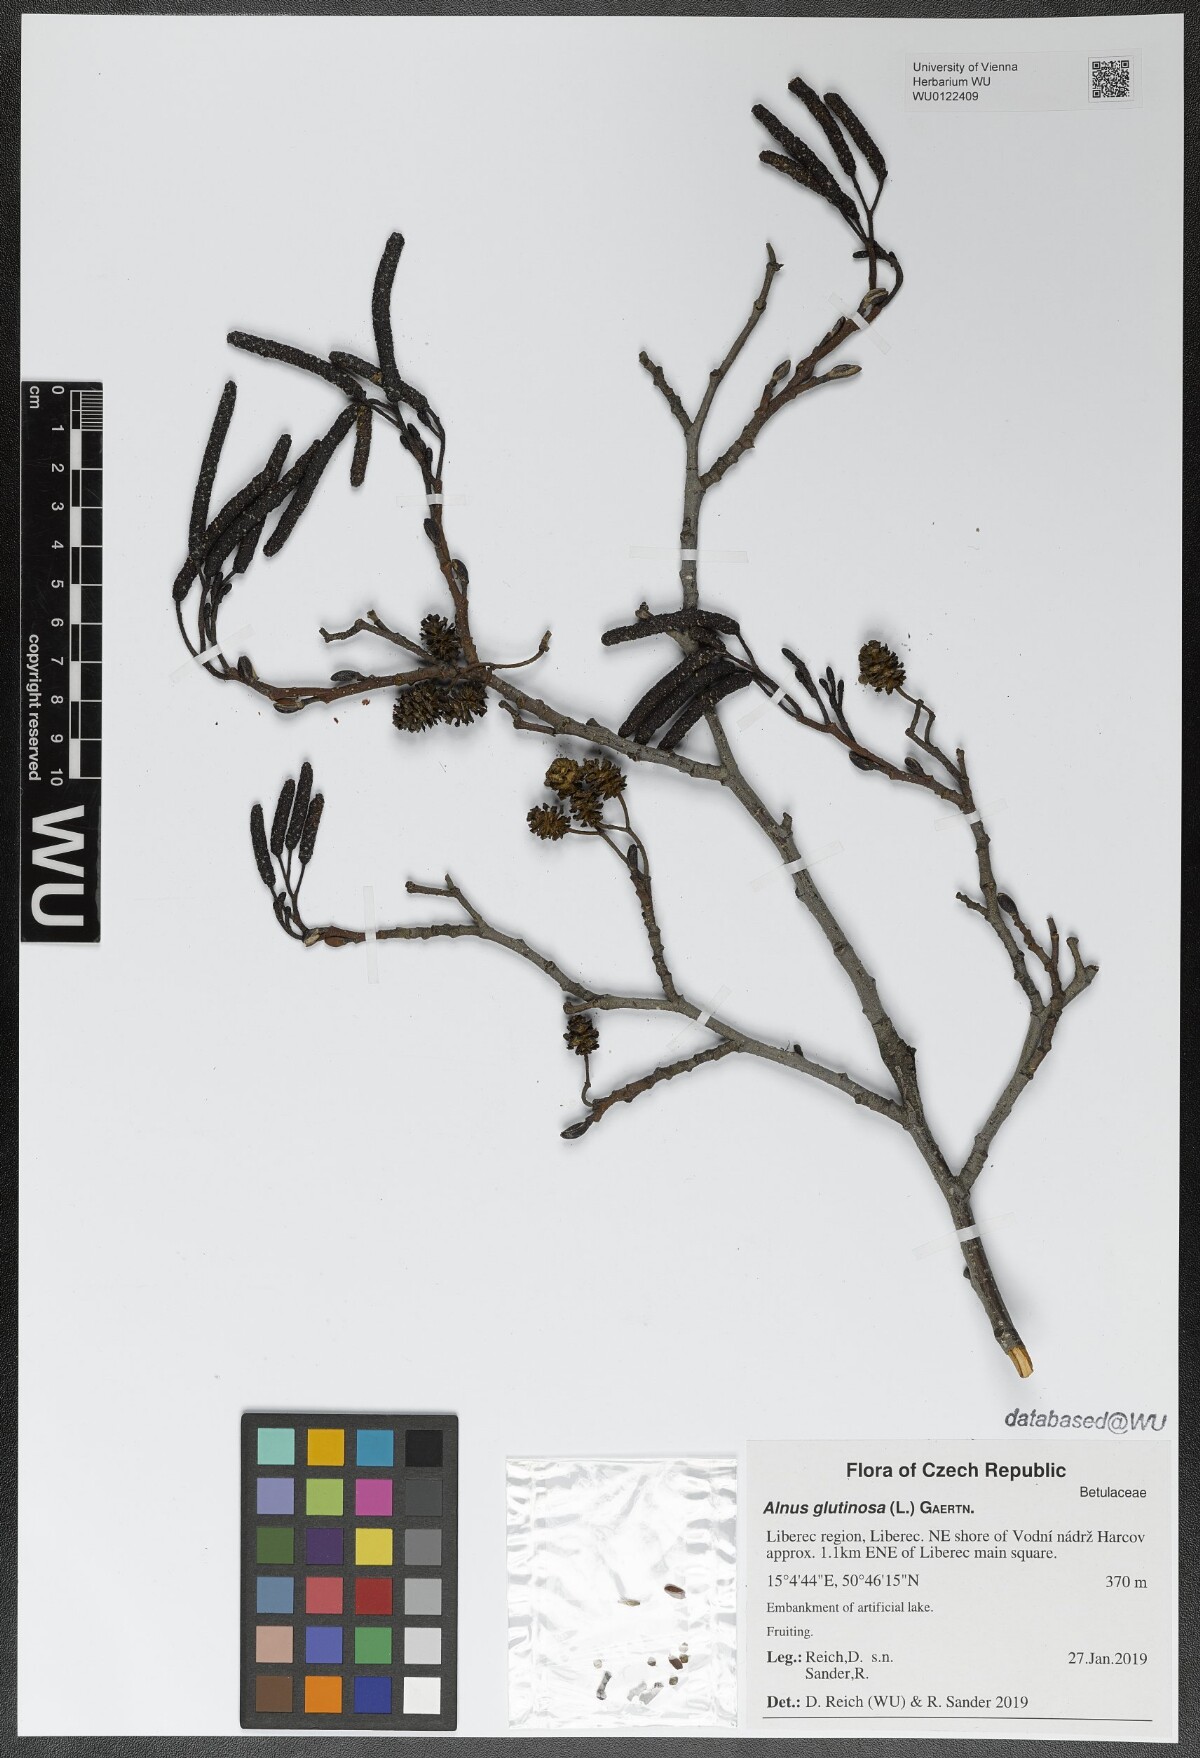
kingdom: Plantae
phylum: Tracheophyta
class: Magnoliopsida
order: Fagales
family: Betulaceae
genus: Alnus
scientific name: Alnus glutinosa
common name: Black alder
